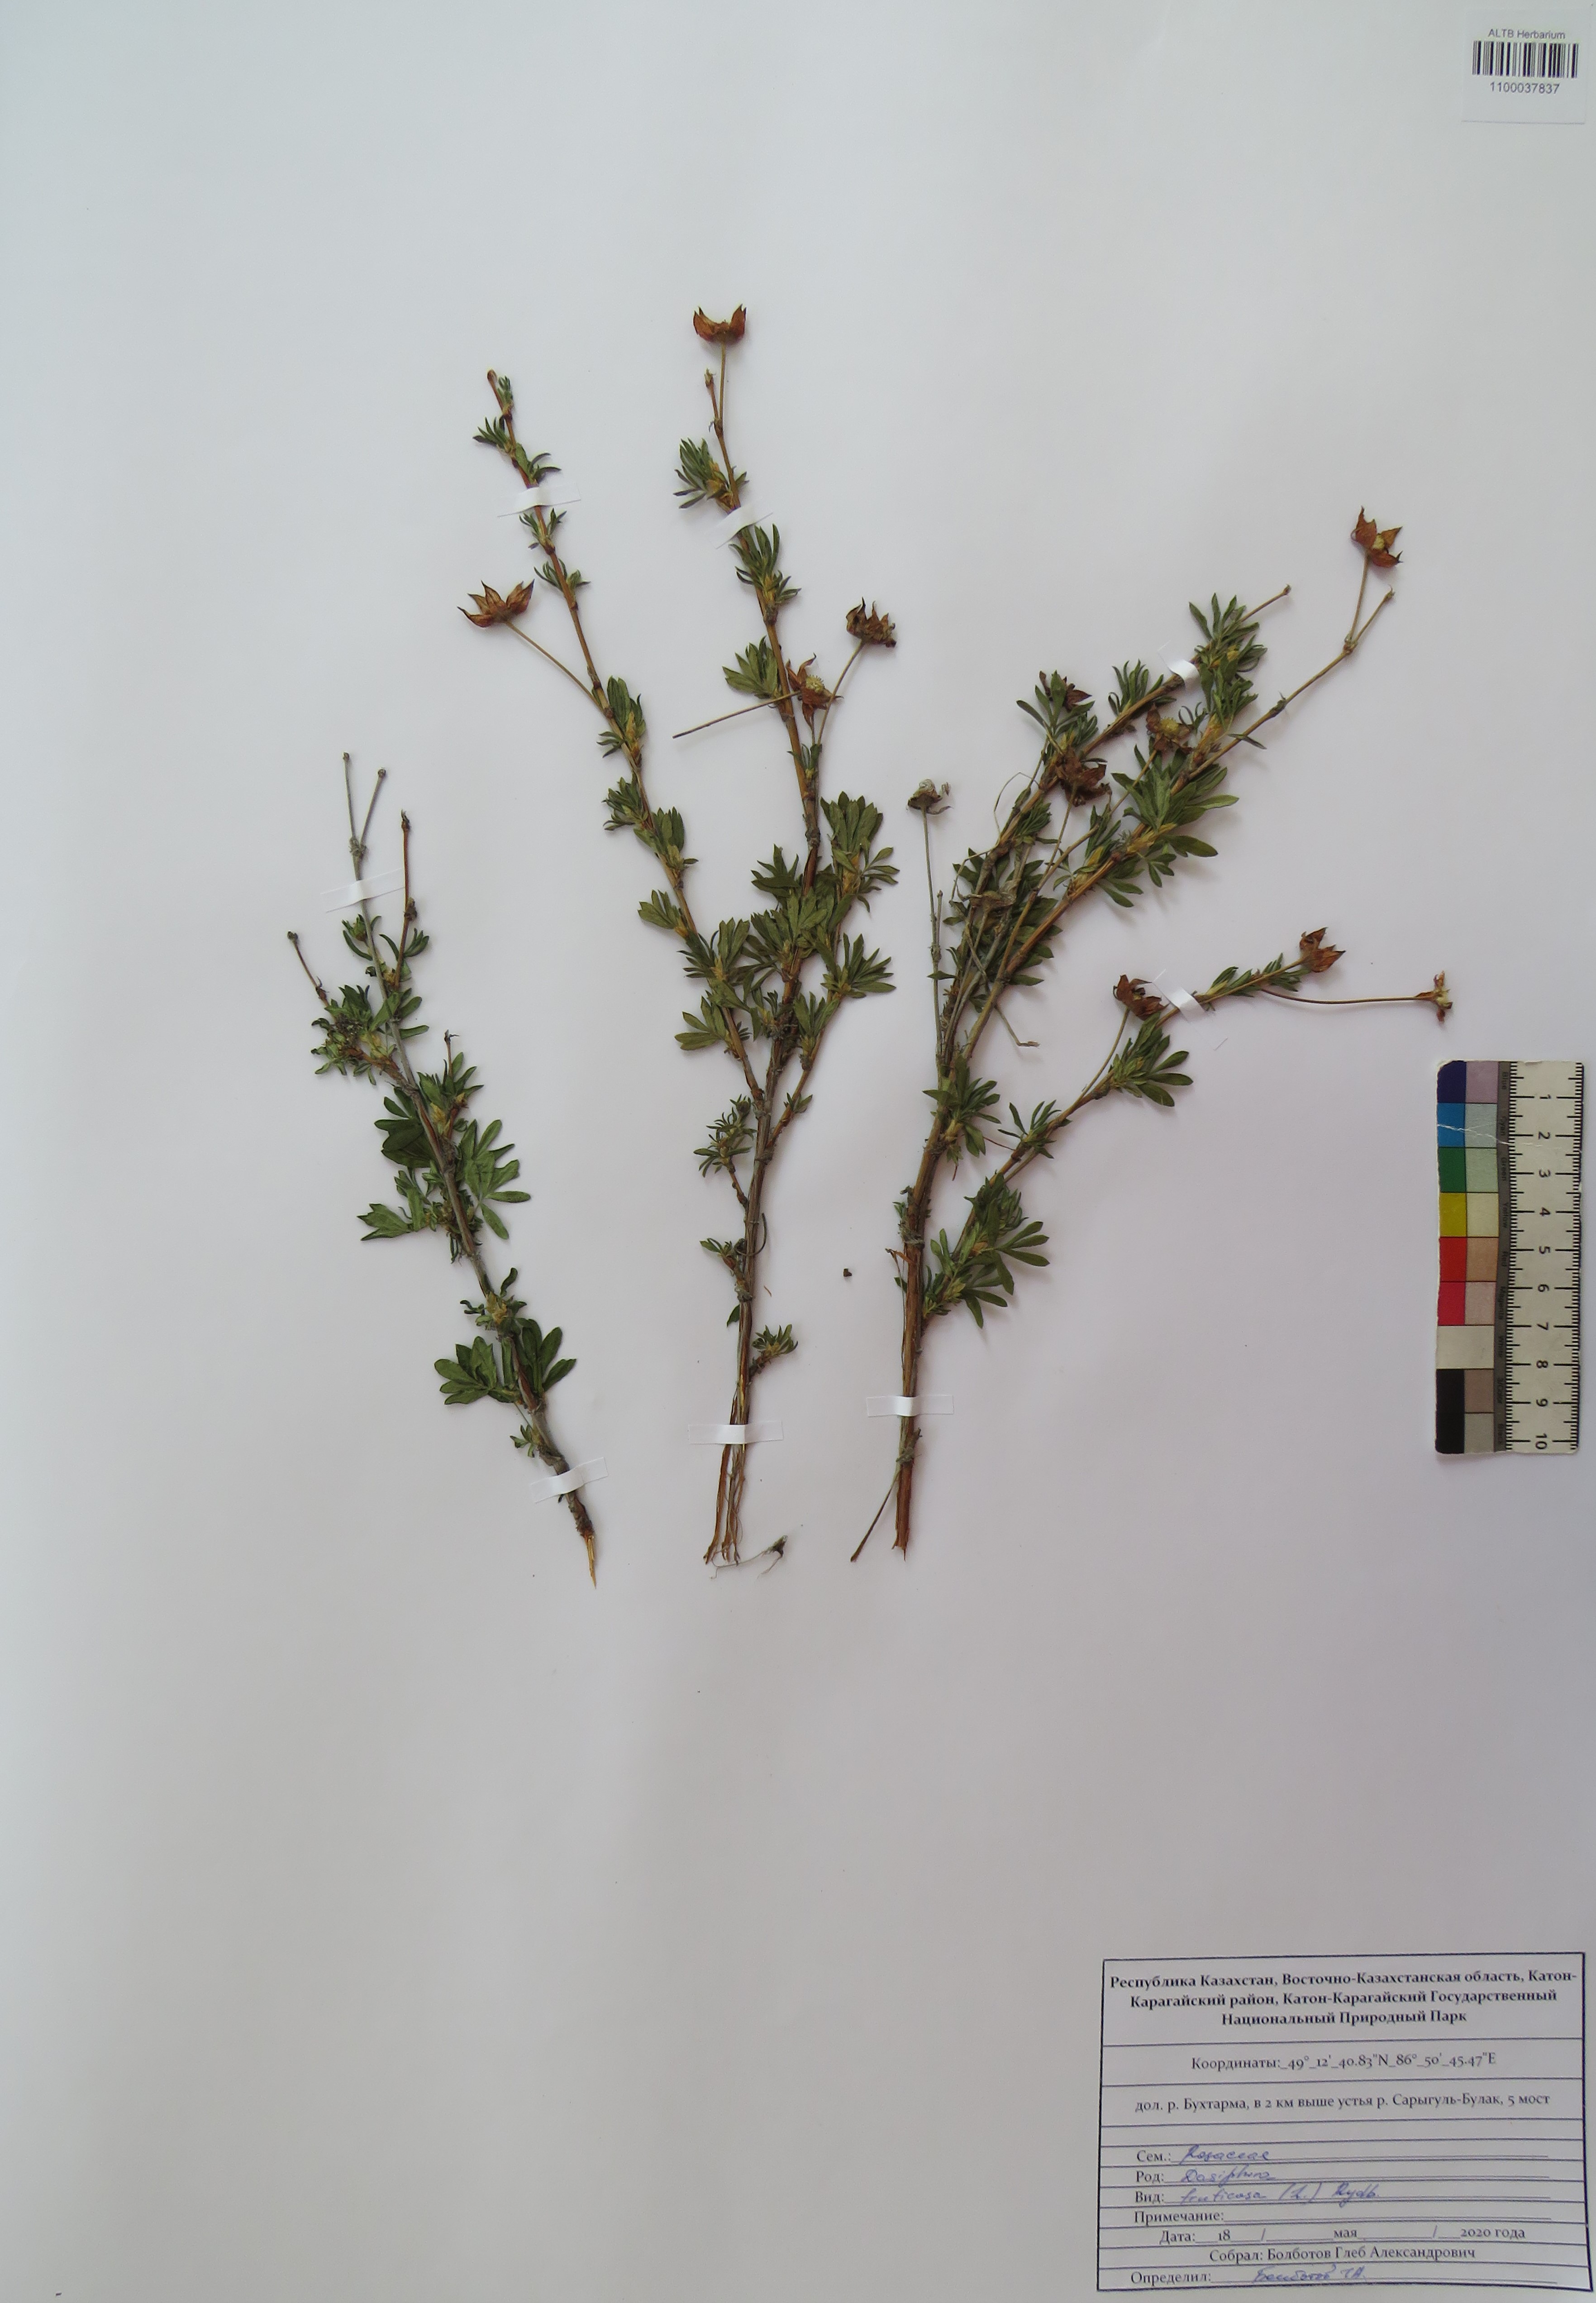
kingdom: Plantae
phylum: Tracheophyta
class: Magnoliopsida
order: Rosales
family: Rosaceae
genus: Dasiphora
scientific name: Dasiphora fruticosa
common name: Shrubby cinquefoil
